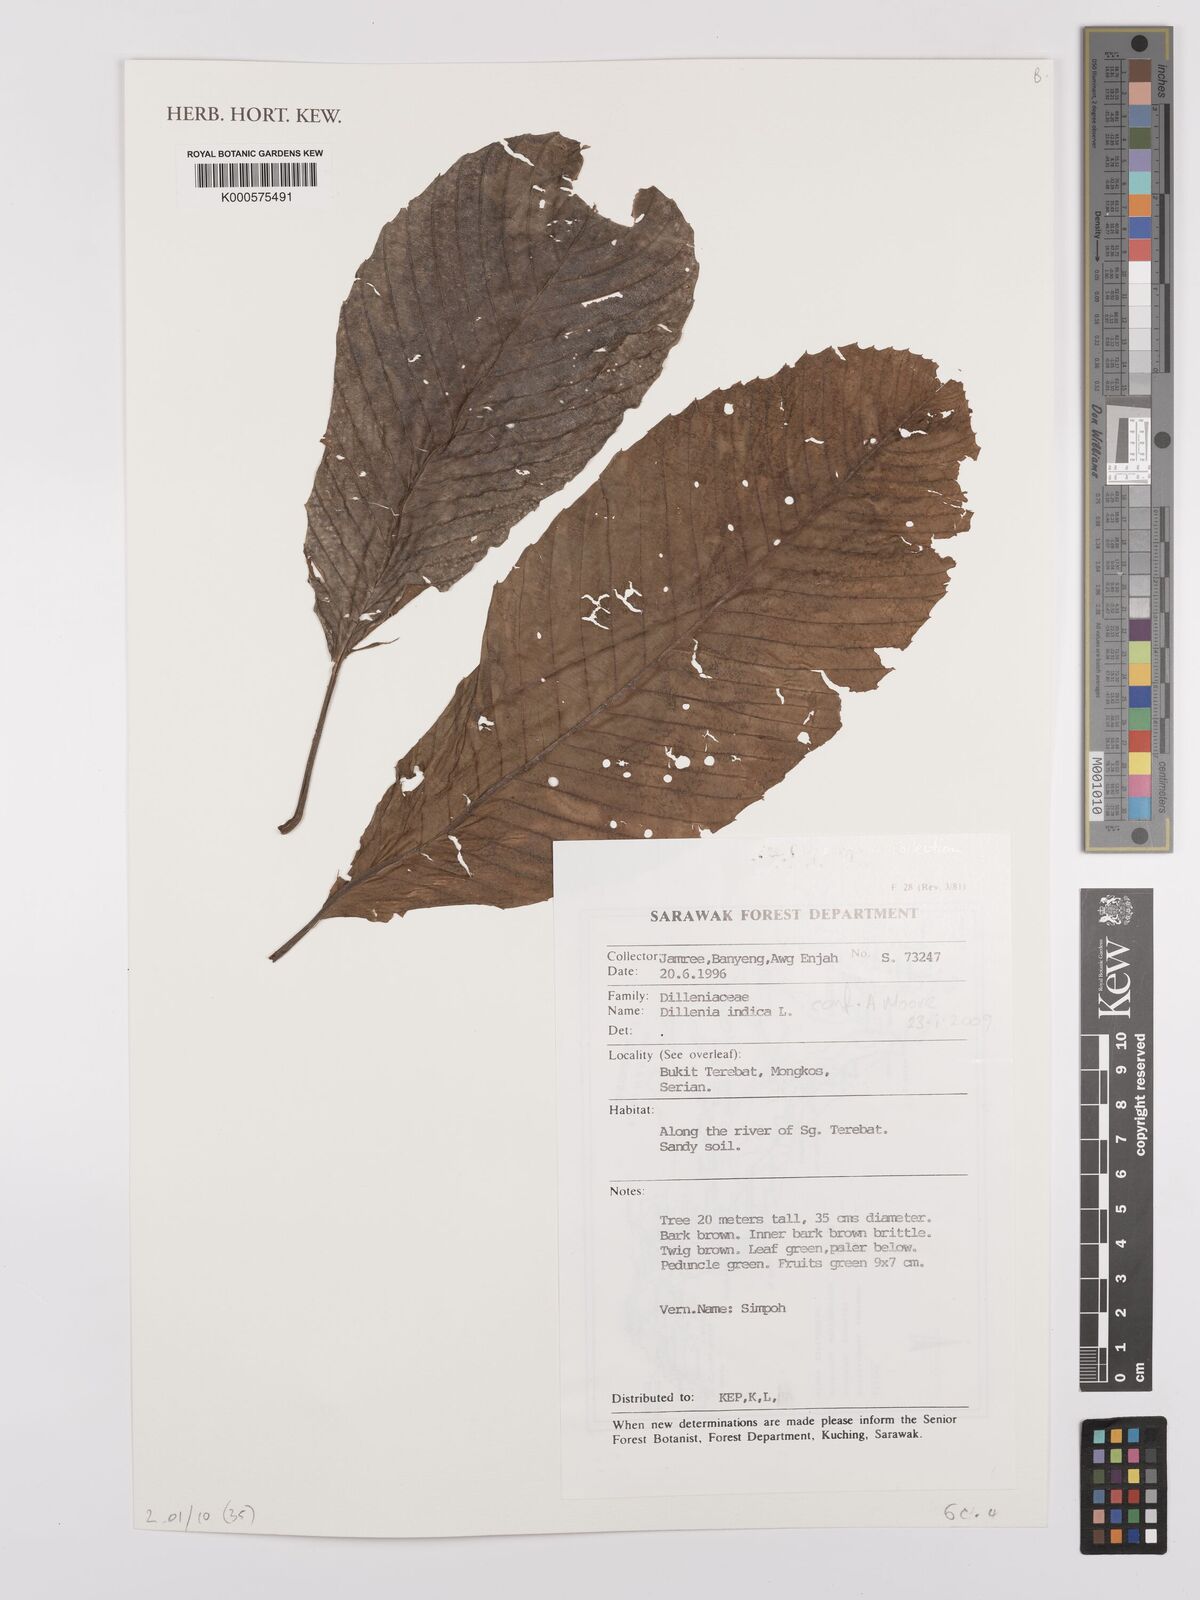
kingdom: Plantae
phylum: Tracheophyta
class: Magnoliopsida
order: Dilleniales
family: Dilleniaceae
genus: Dillenia
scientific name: Dillenia indica
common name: Elephant apple
